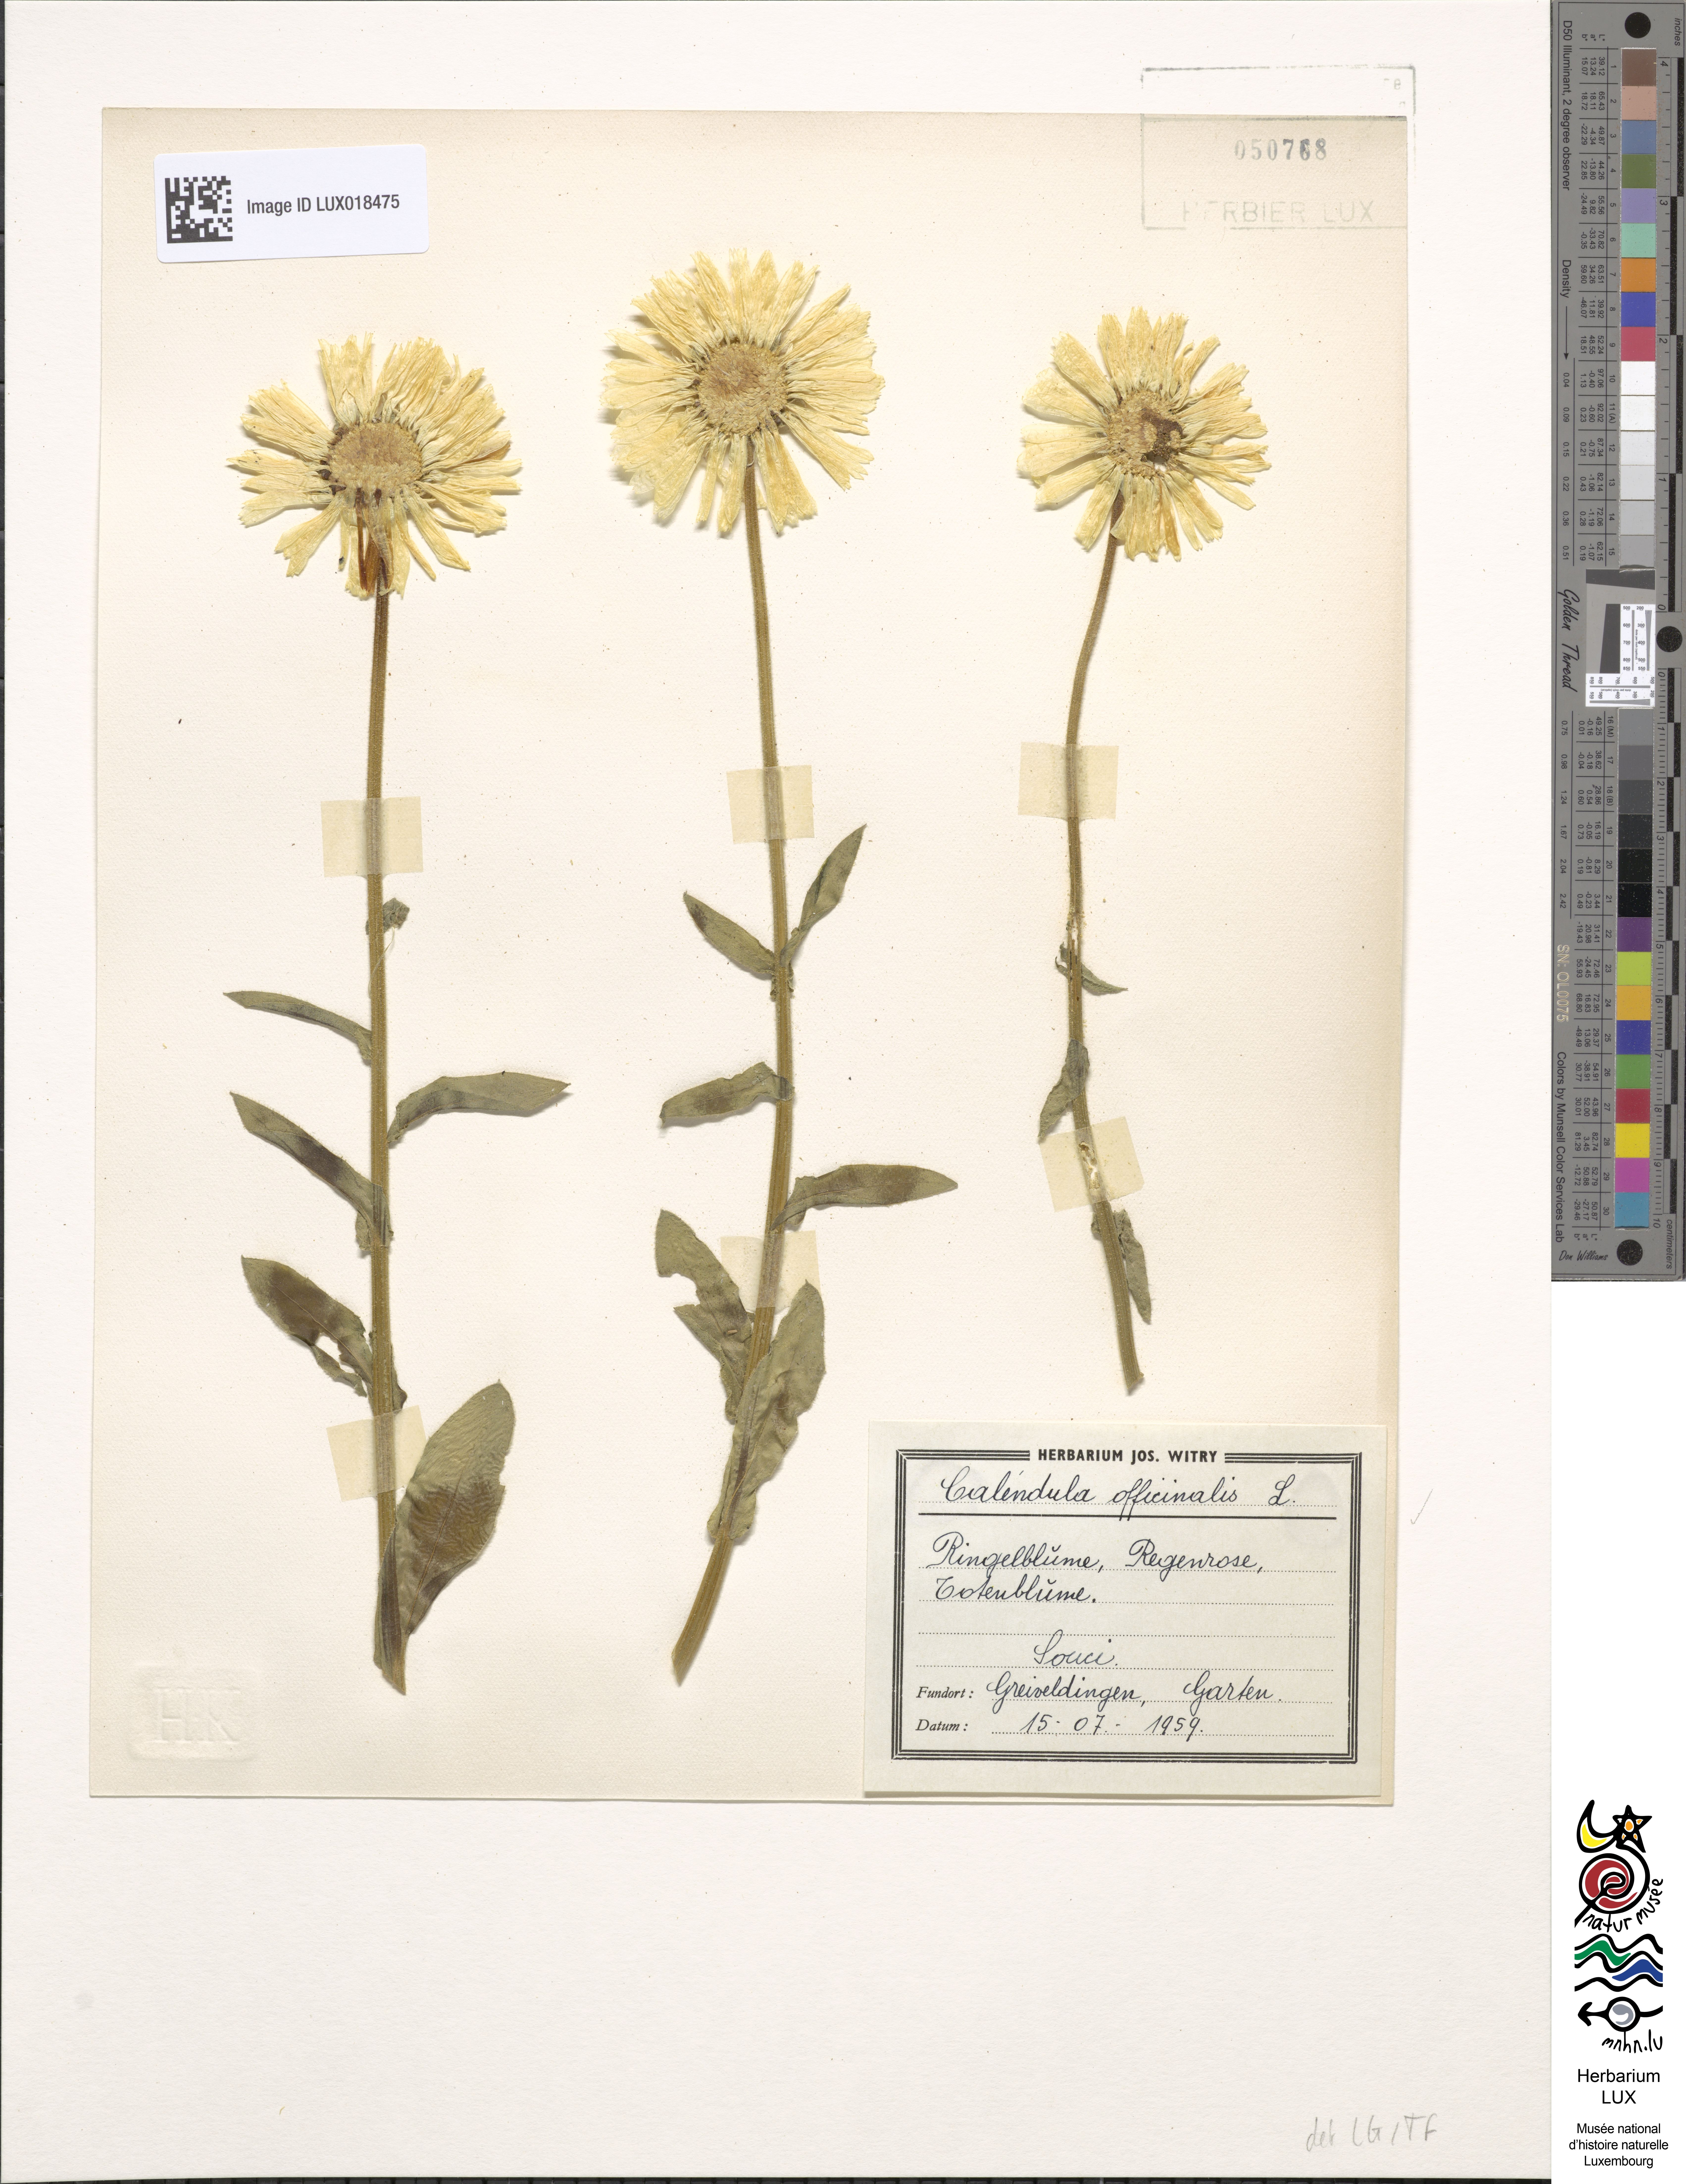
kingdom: Plantae
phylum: Tracheophyta
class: Magnoliopsida
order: Asterales
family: Asteraceae
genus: Calendula
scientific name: Calendula officinalis
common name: Pot marigold
